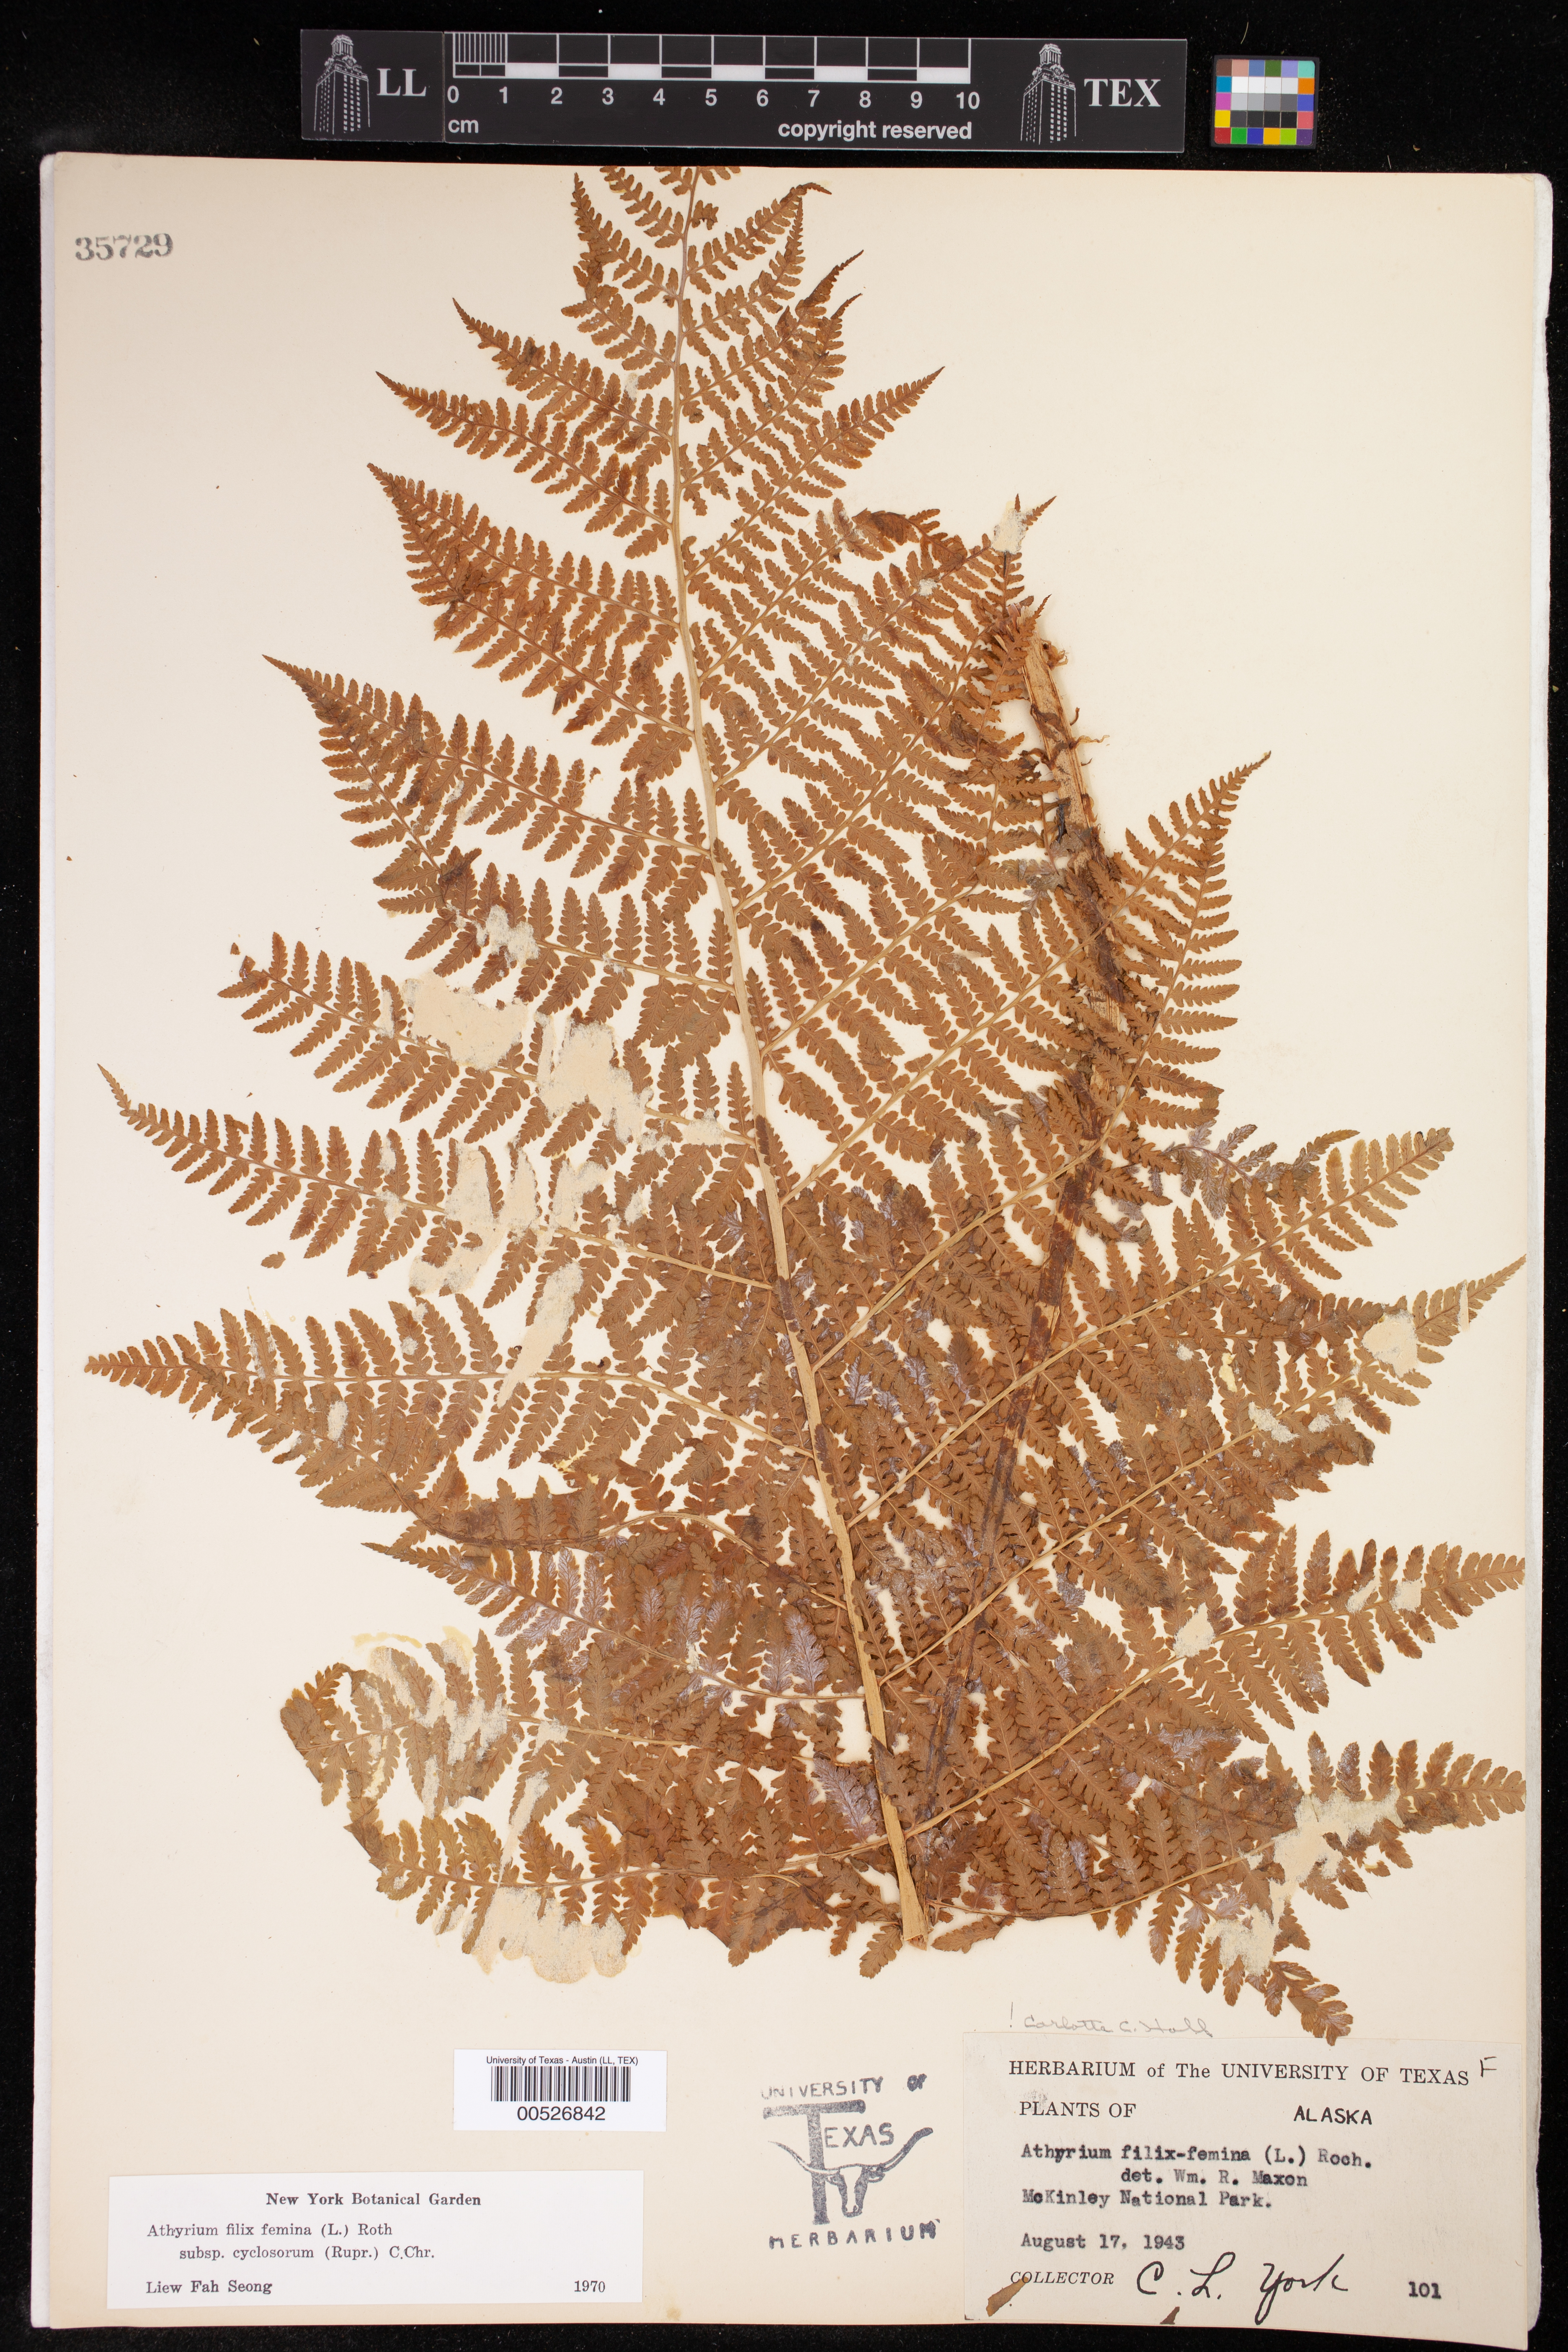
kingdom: Plantae
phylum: Tracheophyta
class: Polypodiopsida
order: Polypodiales
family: Athyriaceae
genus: Athyrium
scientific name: Athyrium cyclosorum
